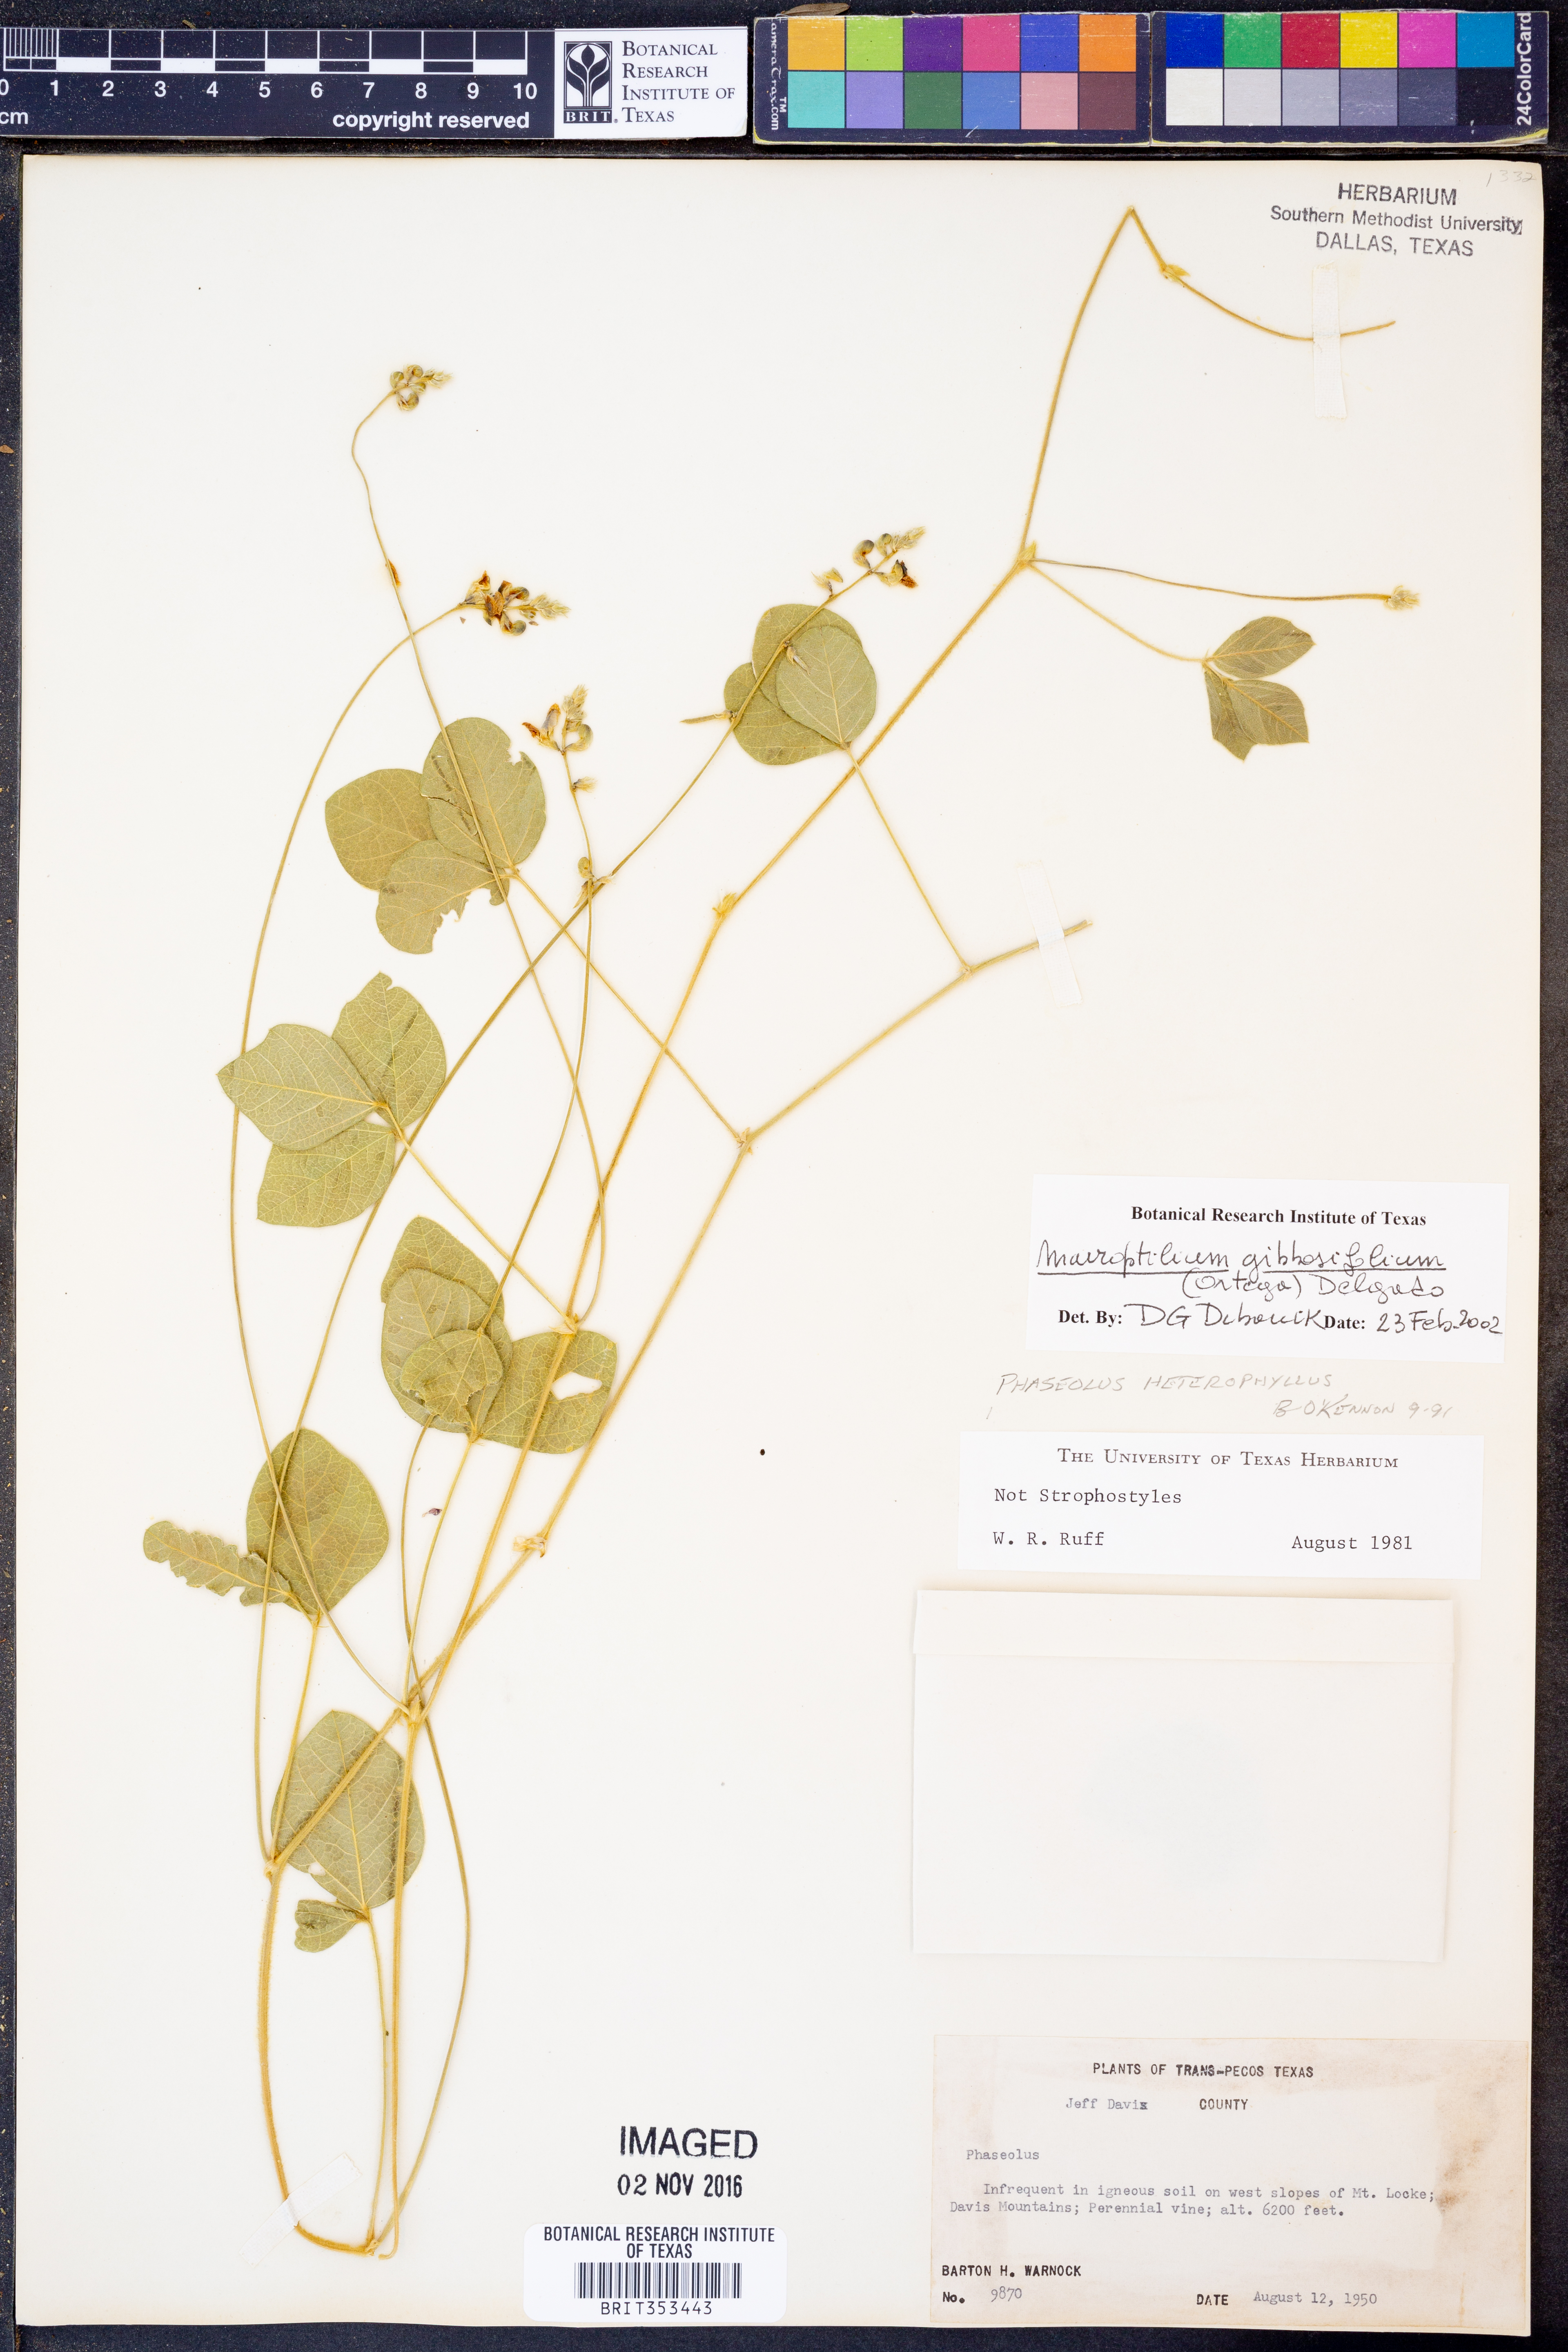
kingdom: Plantae
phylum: Tracheophyta
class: Magnoliopsida
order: Fabales
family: Fabaceae
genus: Macroptilium
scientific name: Macroptilium gibbosifolium
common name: Variableleaf bushbean
